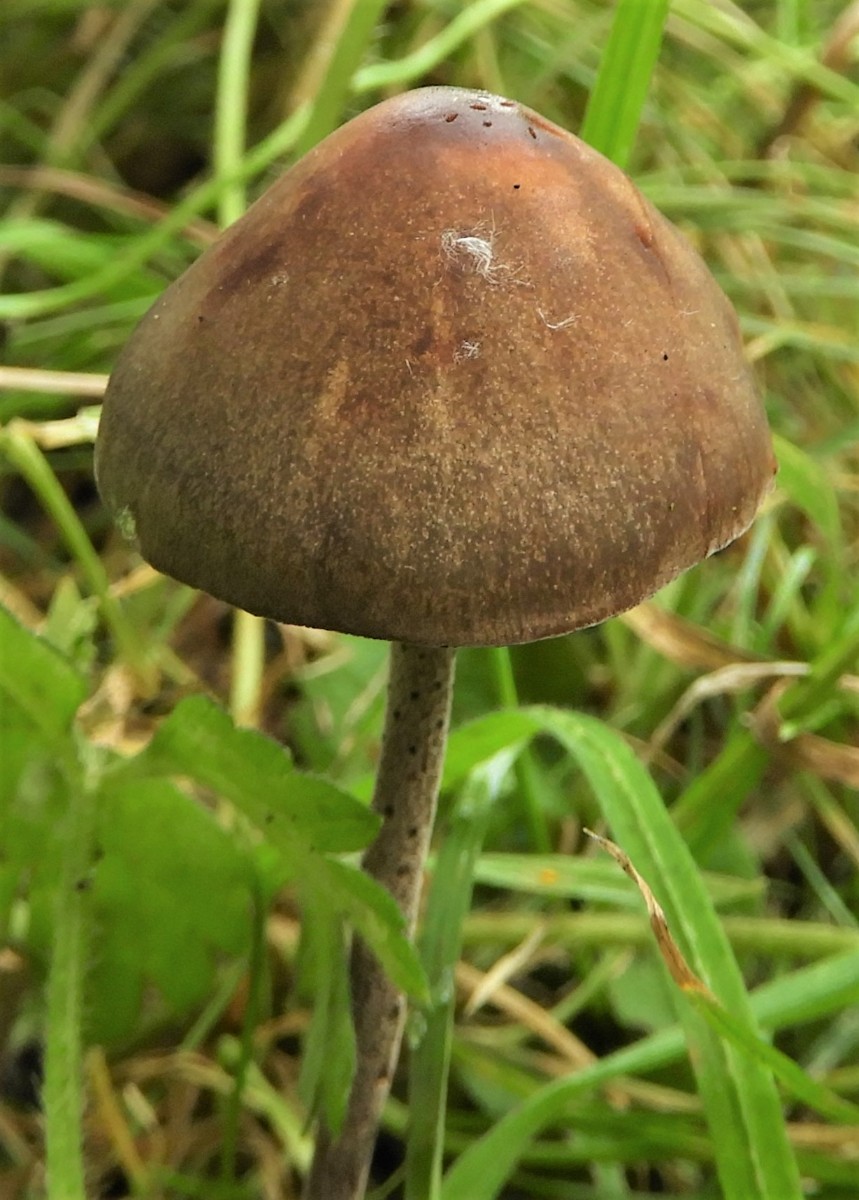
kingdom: Fungi
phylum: Basidiomycota
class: Agaricomycetes
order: Agaricales
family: Bolbitiaceae
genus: Panaeolus
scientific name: Panaeolus acuminatus
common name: høj glanshat
